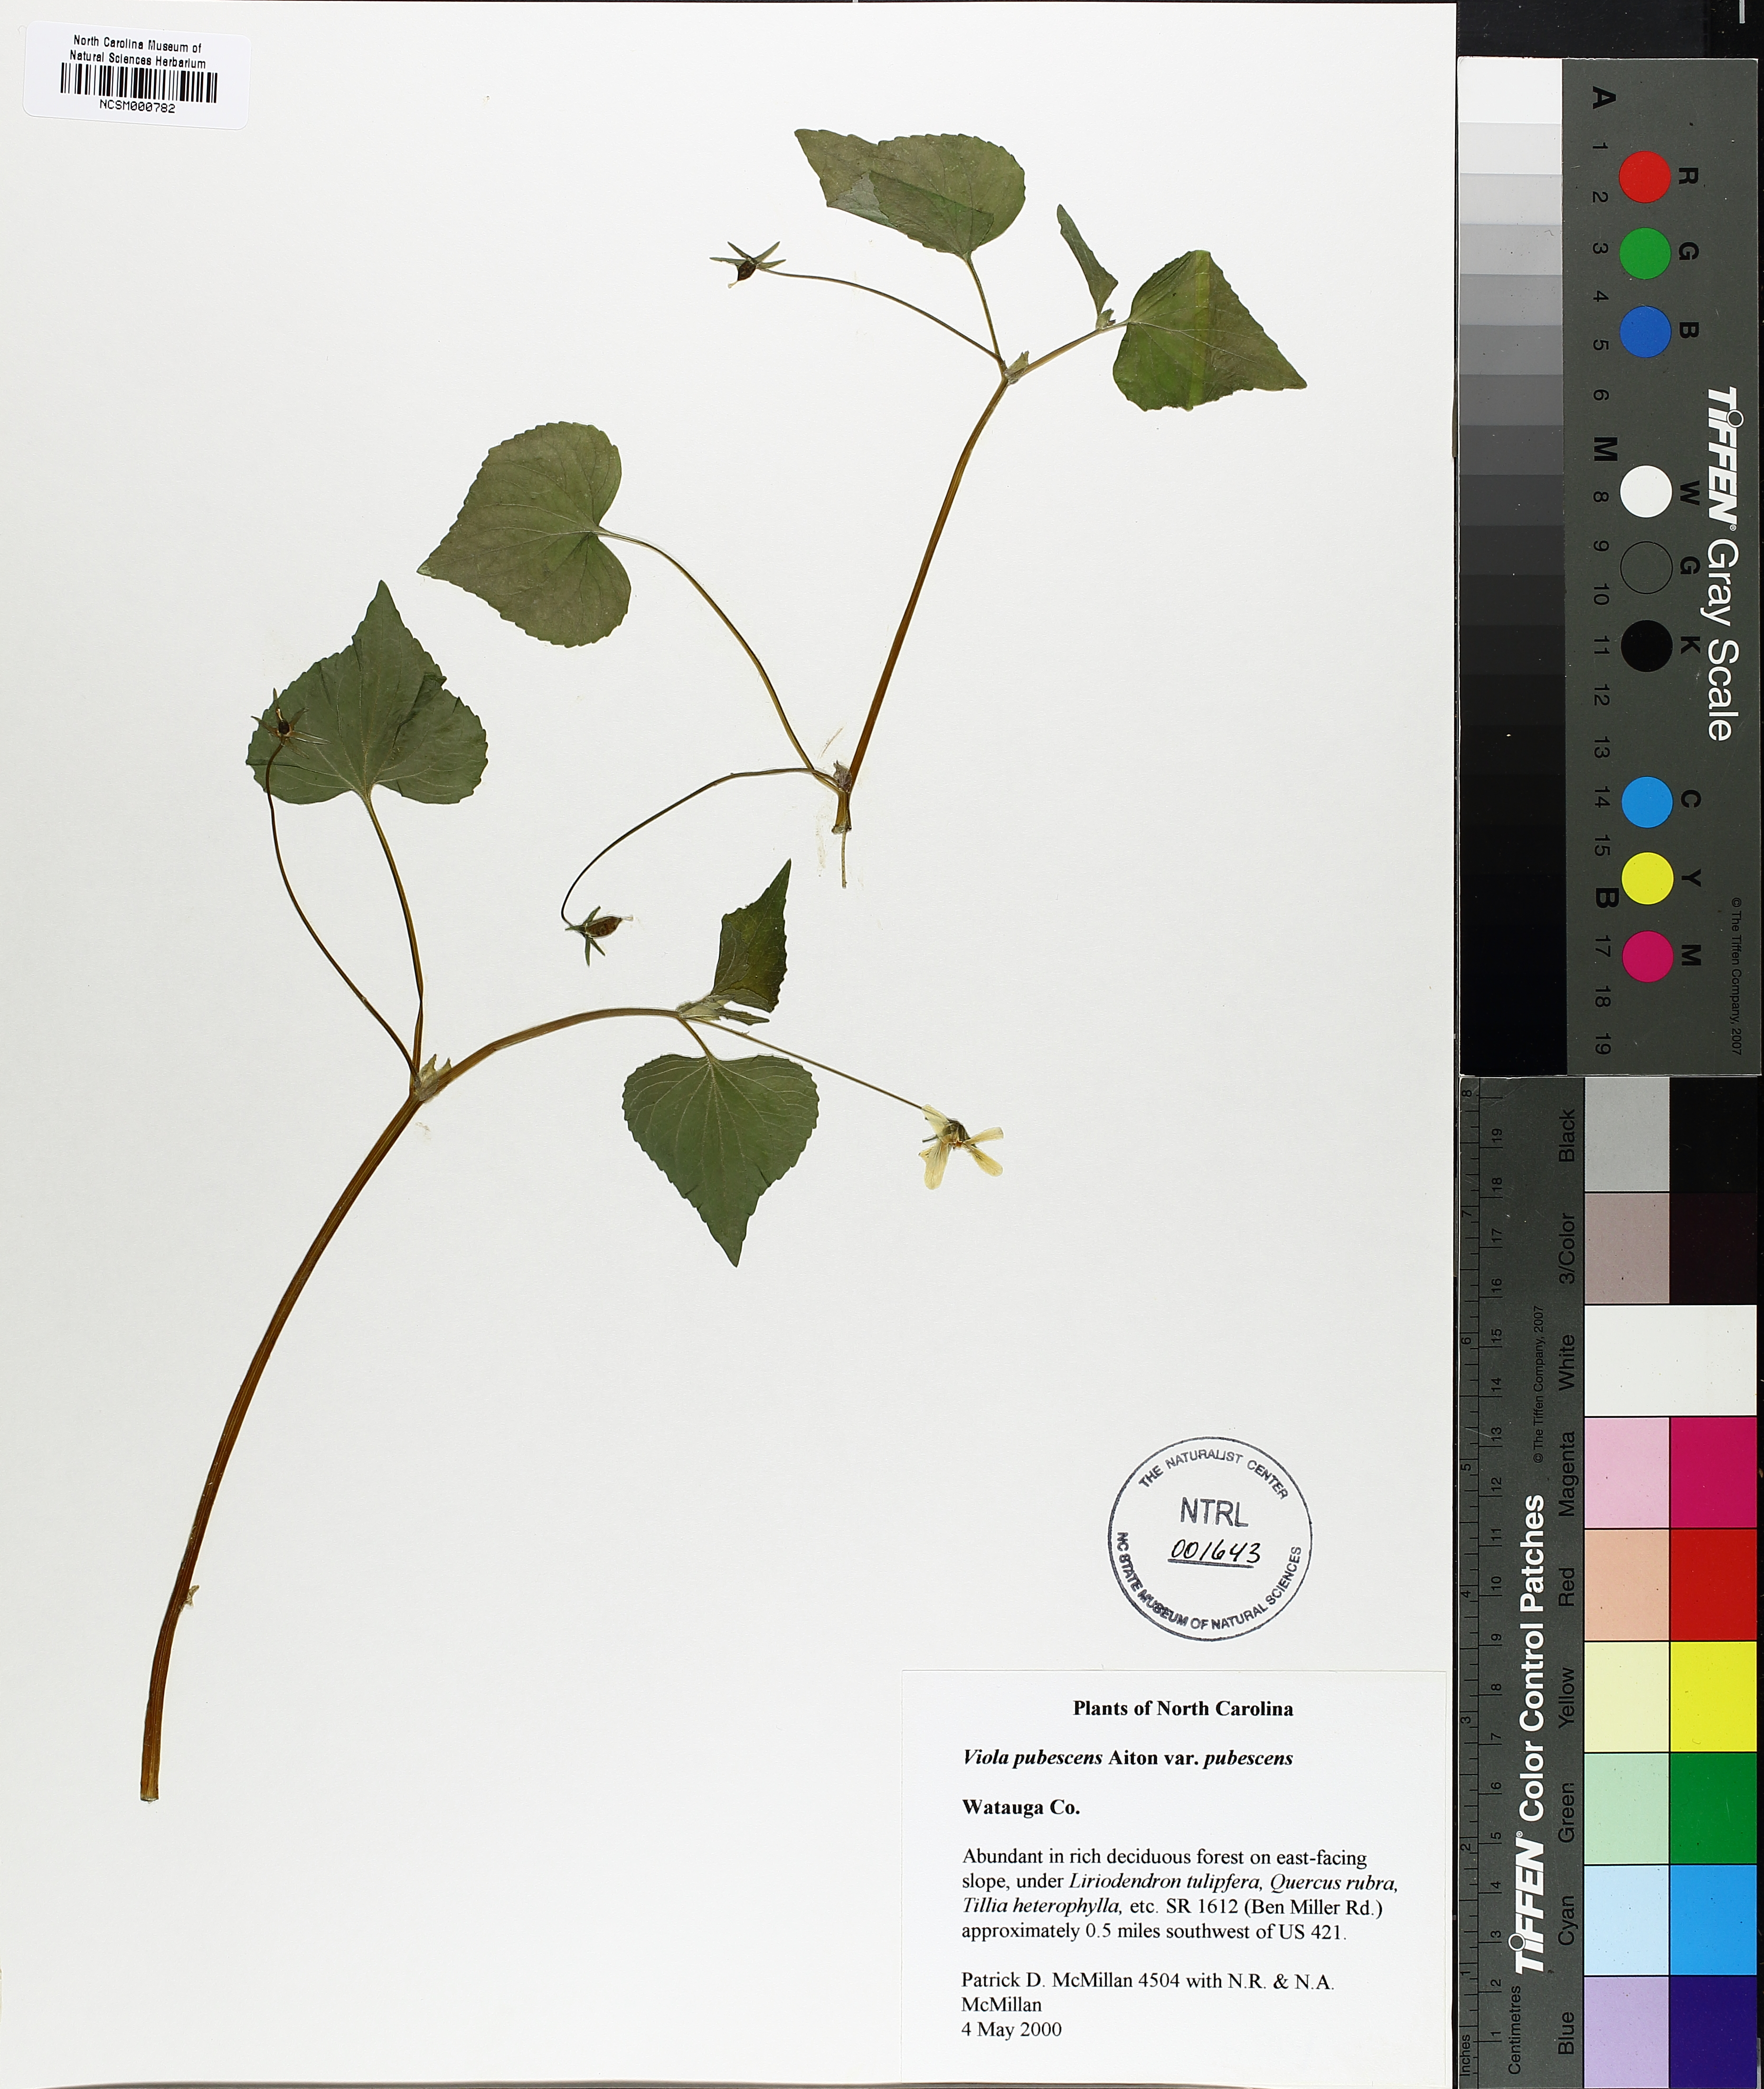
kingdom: Plantae
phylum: Tracheophyta
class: Magnoliopsida
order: Malpighiales
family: Violaceae
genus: Viola
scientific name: Viola pubescens
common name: Yellow forest violet
